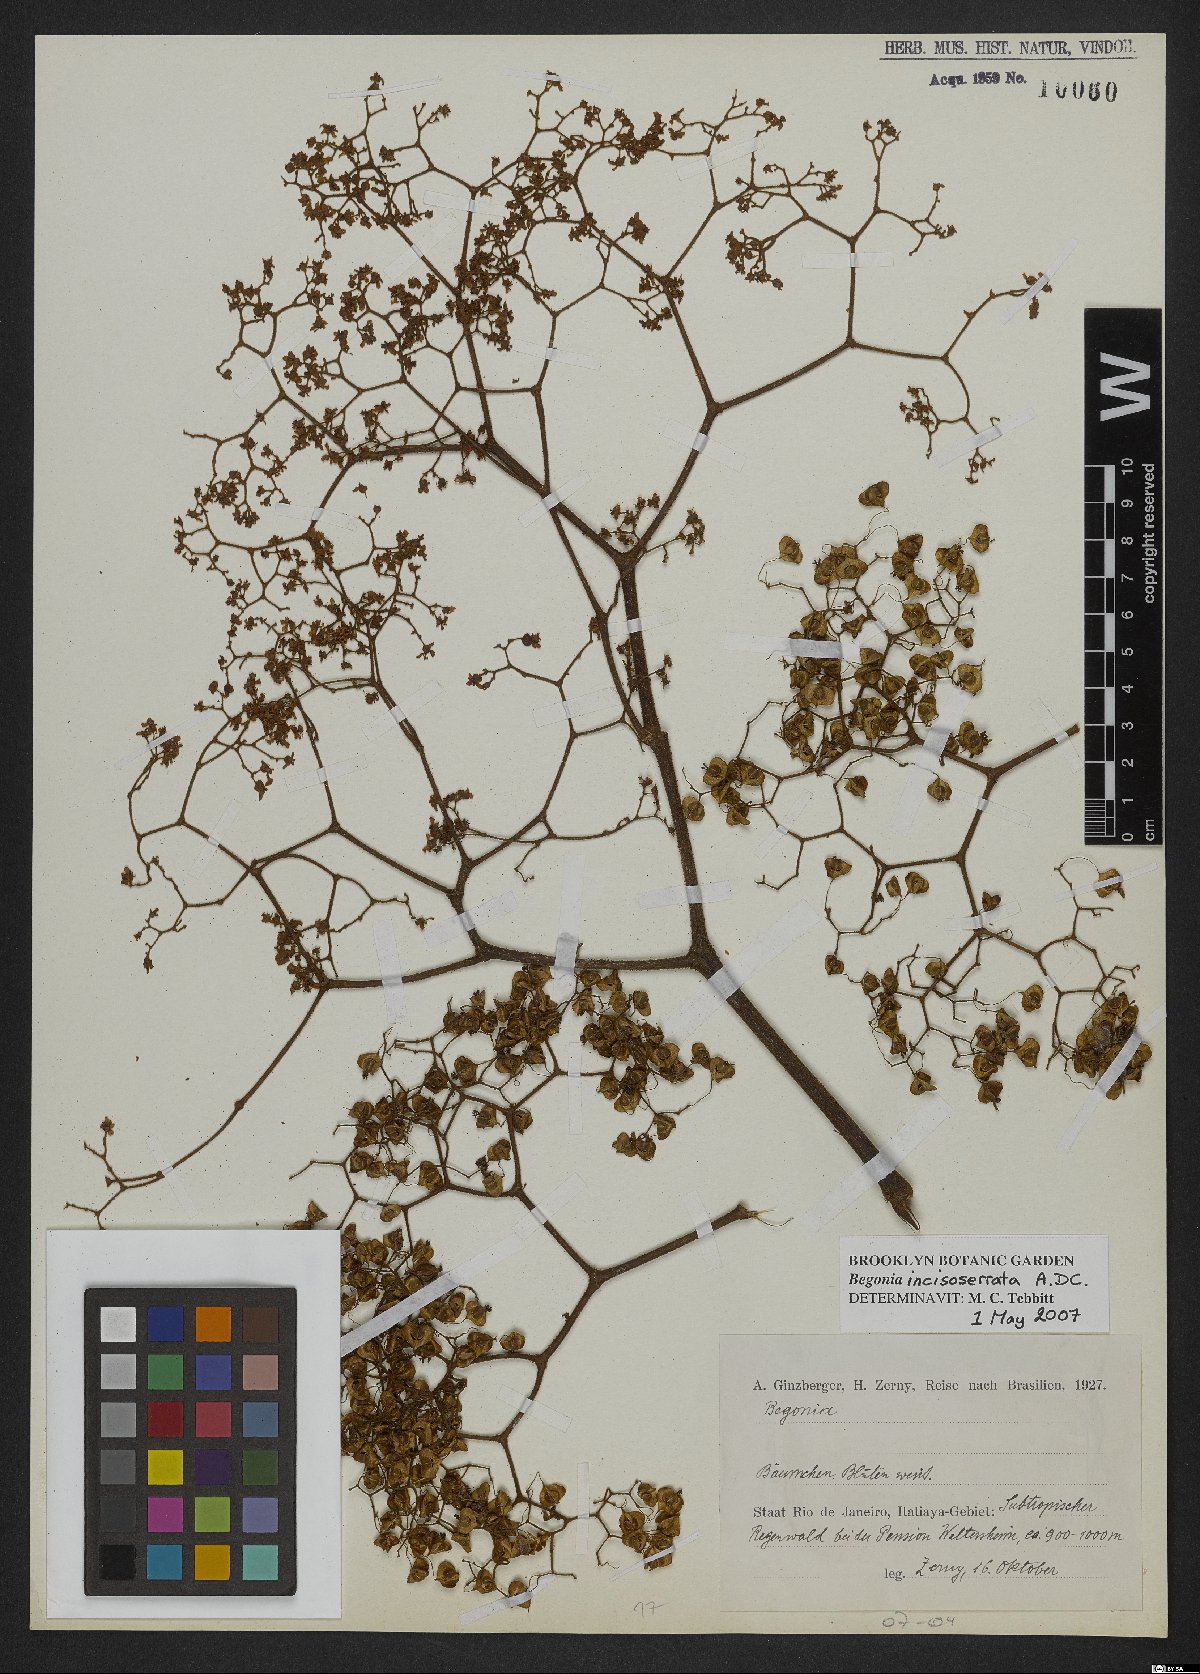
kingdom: Plantae
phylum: Tracheophyta
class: Magnoliopsida
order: Cucurbitales
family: Begoniaceae
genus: Begonia
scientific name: Begonia incisoserrata
